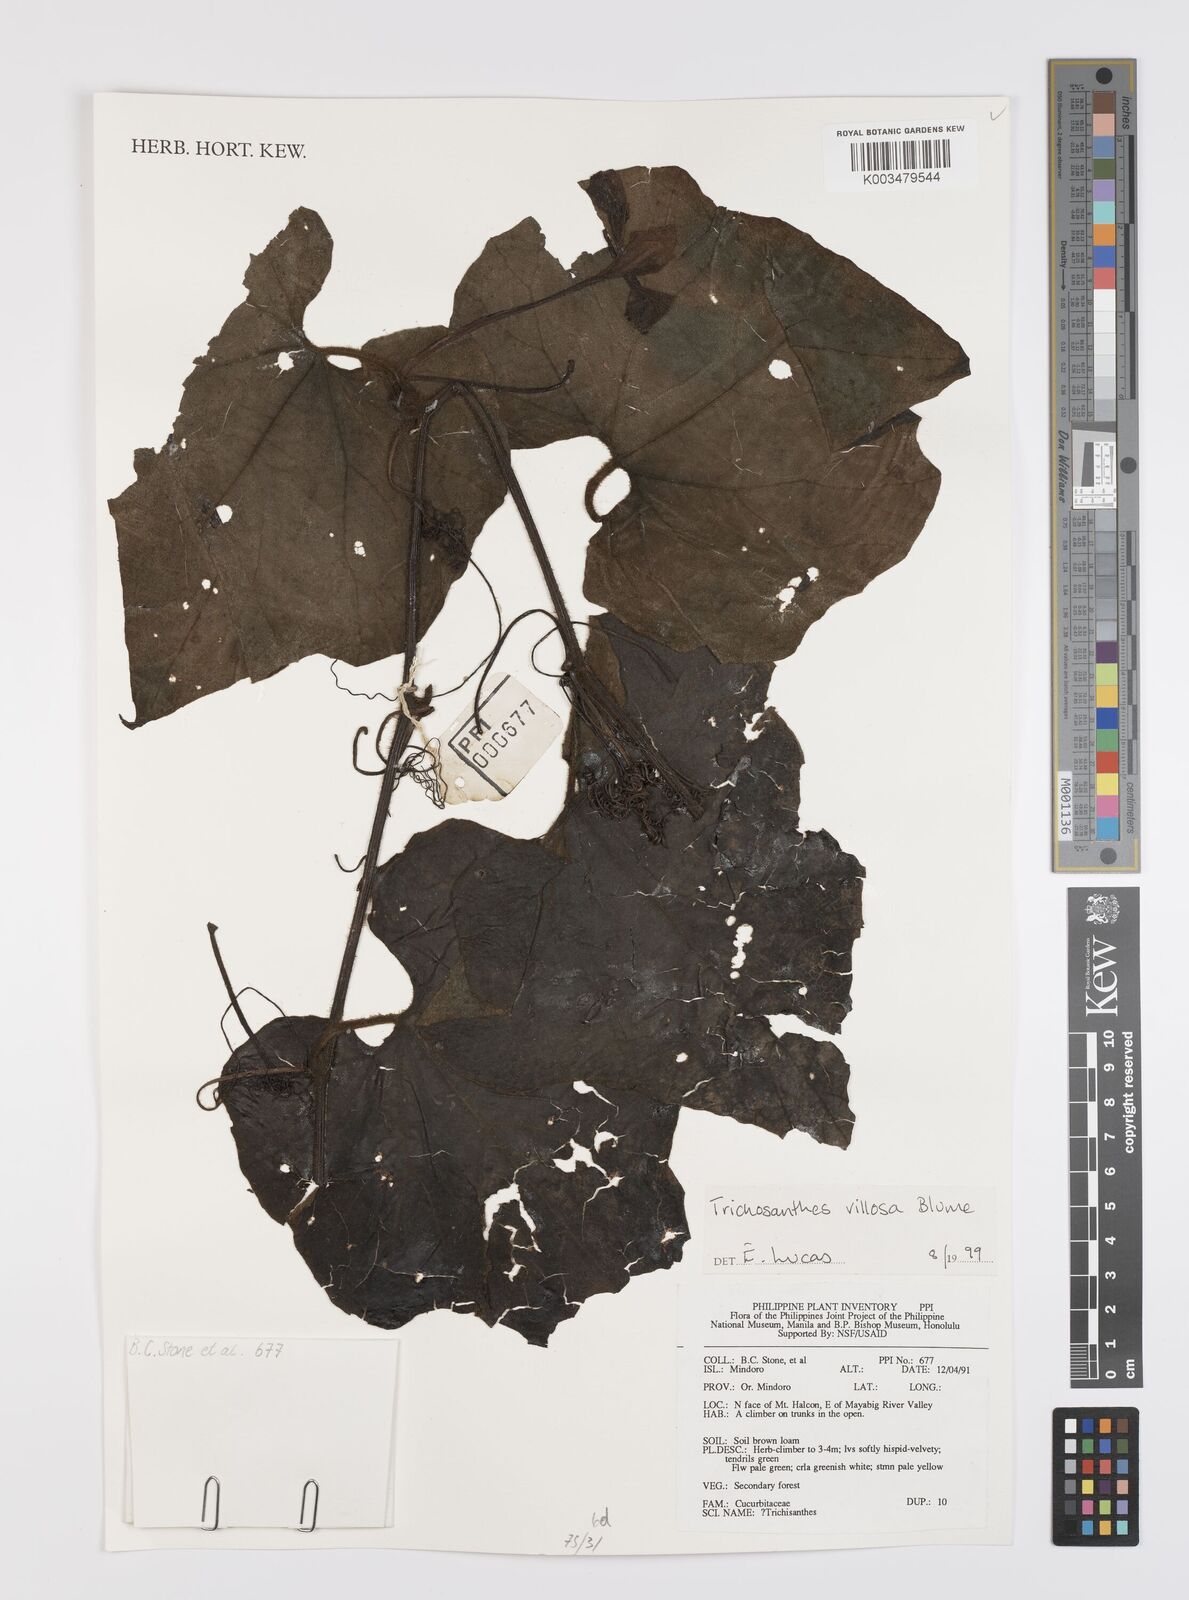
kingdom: Plantae
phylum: Tracheophyta
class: Magnoliopsida
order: Cucurbitales
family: Cucurbitaceae
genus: Trichosanthes
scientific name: Trichosanthes villosa
